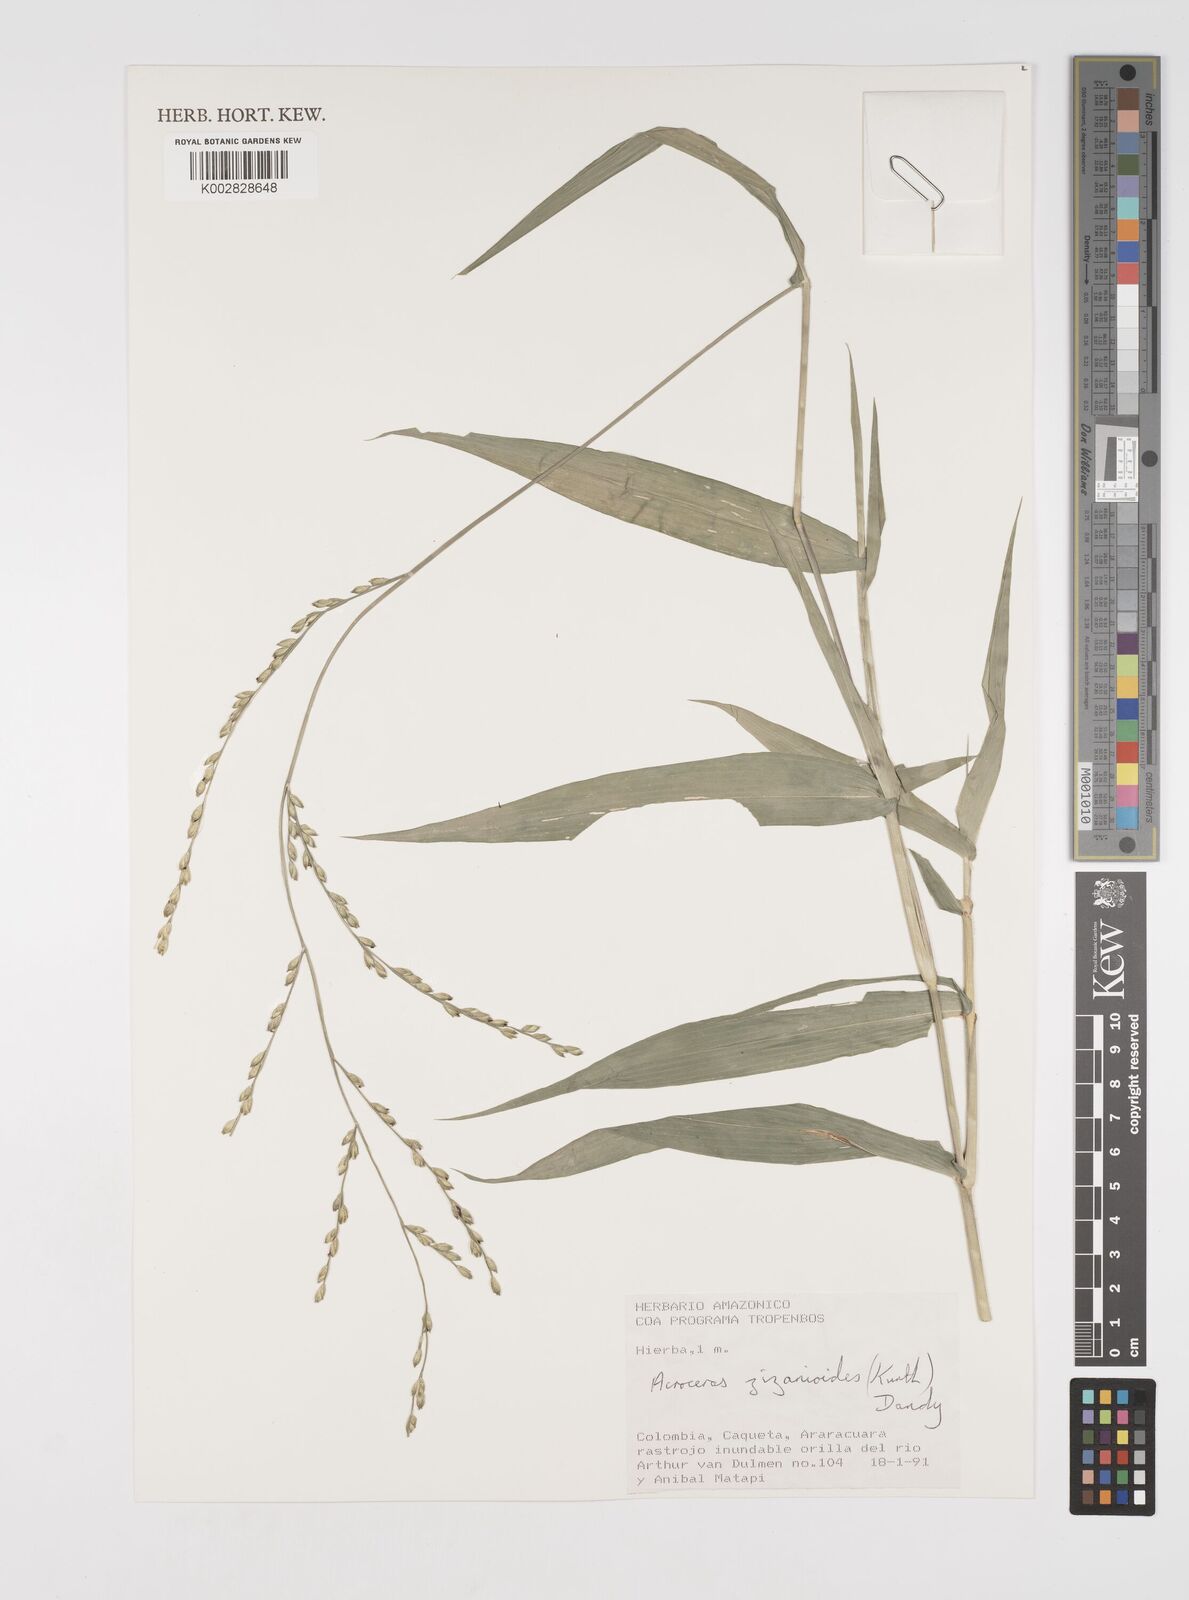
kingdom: Plantae
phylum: Tracheophyta
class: Liliopsida
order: Poales
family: Poaceae
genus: Acroceras
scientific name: Acroceras zizanioides
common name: Oat grass
